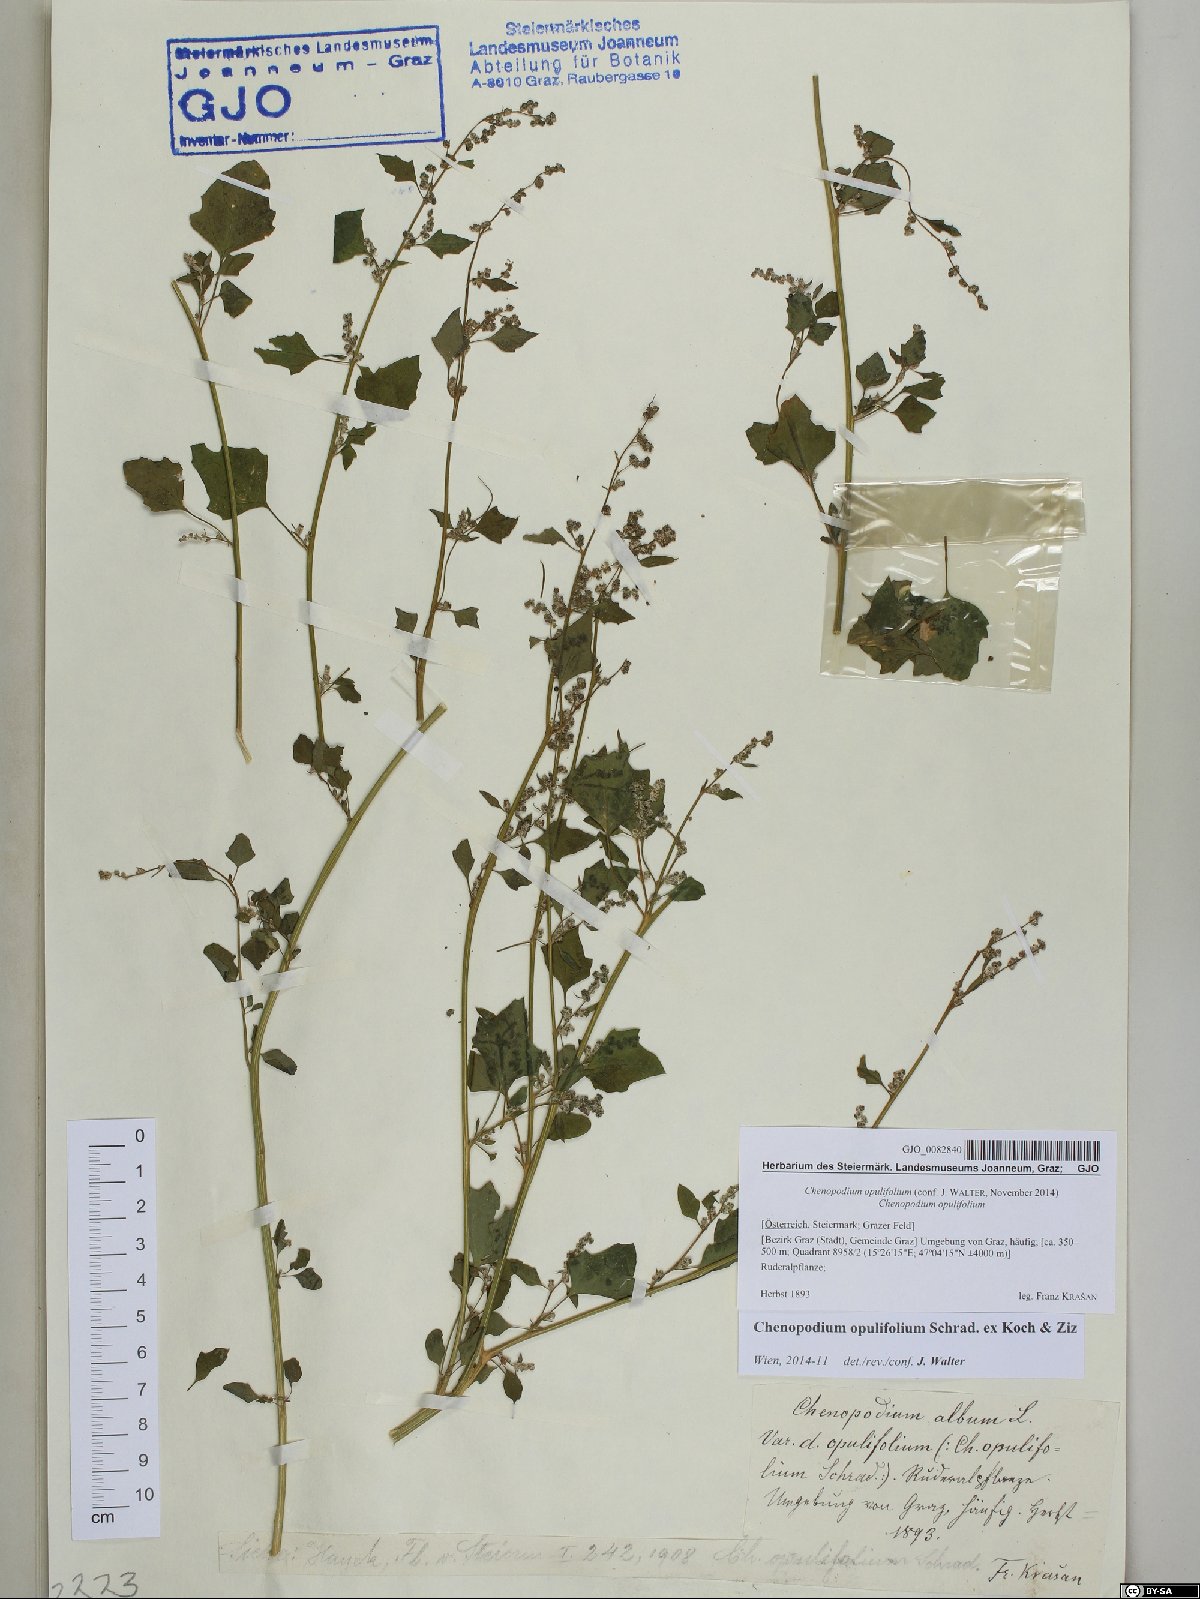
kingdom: Plantae
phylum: Tracheophyta
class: Magnoliopsida
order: Caryophyllales
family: Amaranthaceae
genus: Chenopodium
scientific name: Chenopodium opulifolium
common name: Grey goosefoot
